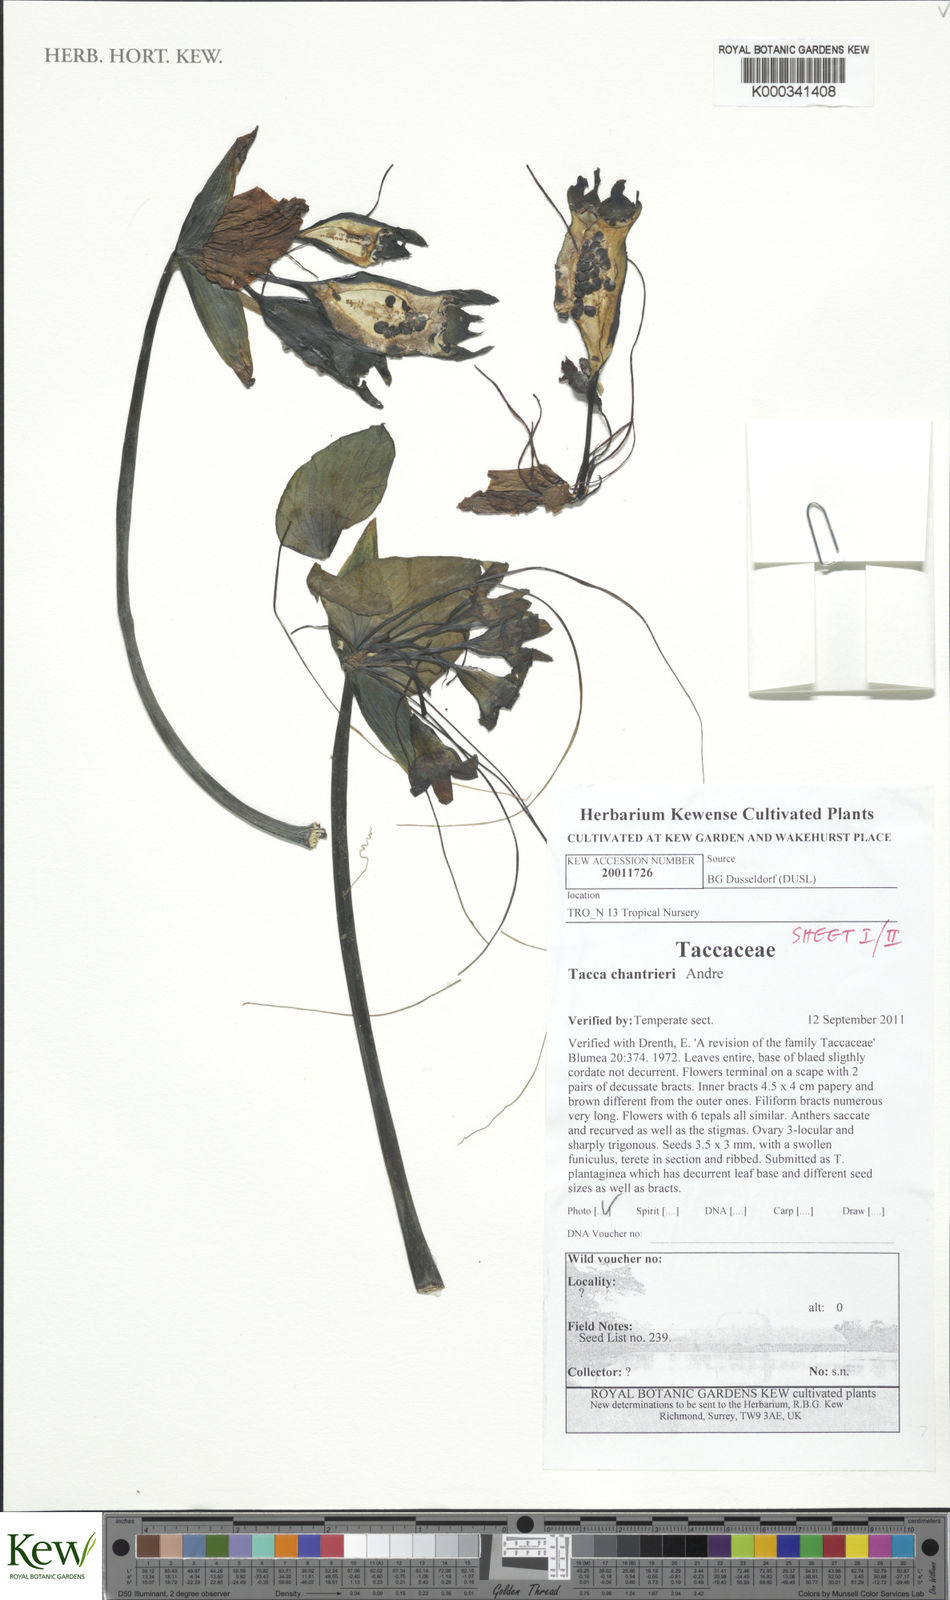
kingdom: Plantae
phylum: Tracheophyta
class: Liliopsida
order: Dioscoreales
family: Dioscoreaceae
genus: Tacca
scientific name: Tacca
